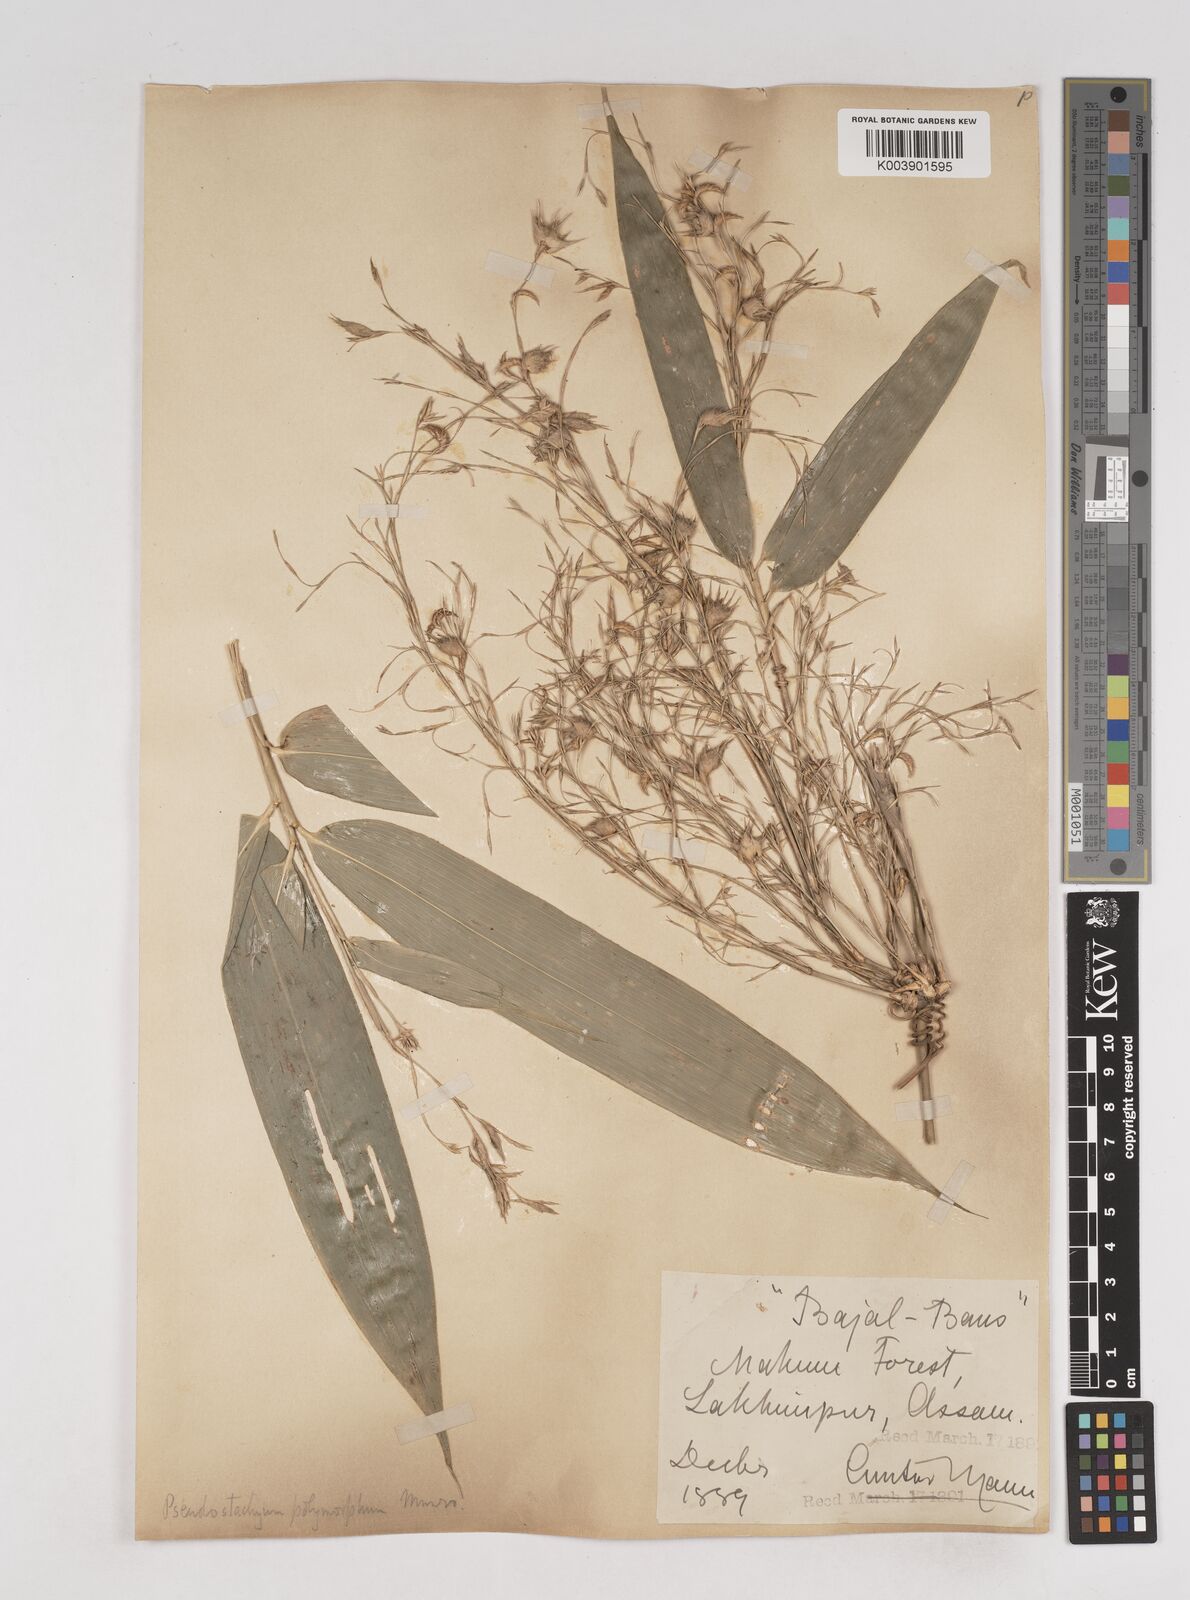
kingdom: Plantae
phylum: Tracheophyta
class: Liliopsida
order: Poales
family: Poaceae
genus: Pseudostachyum
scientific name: Pseudostachyum polymorphum
